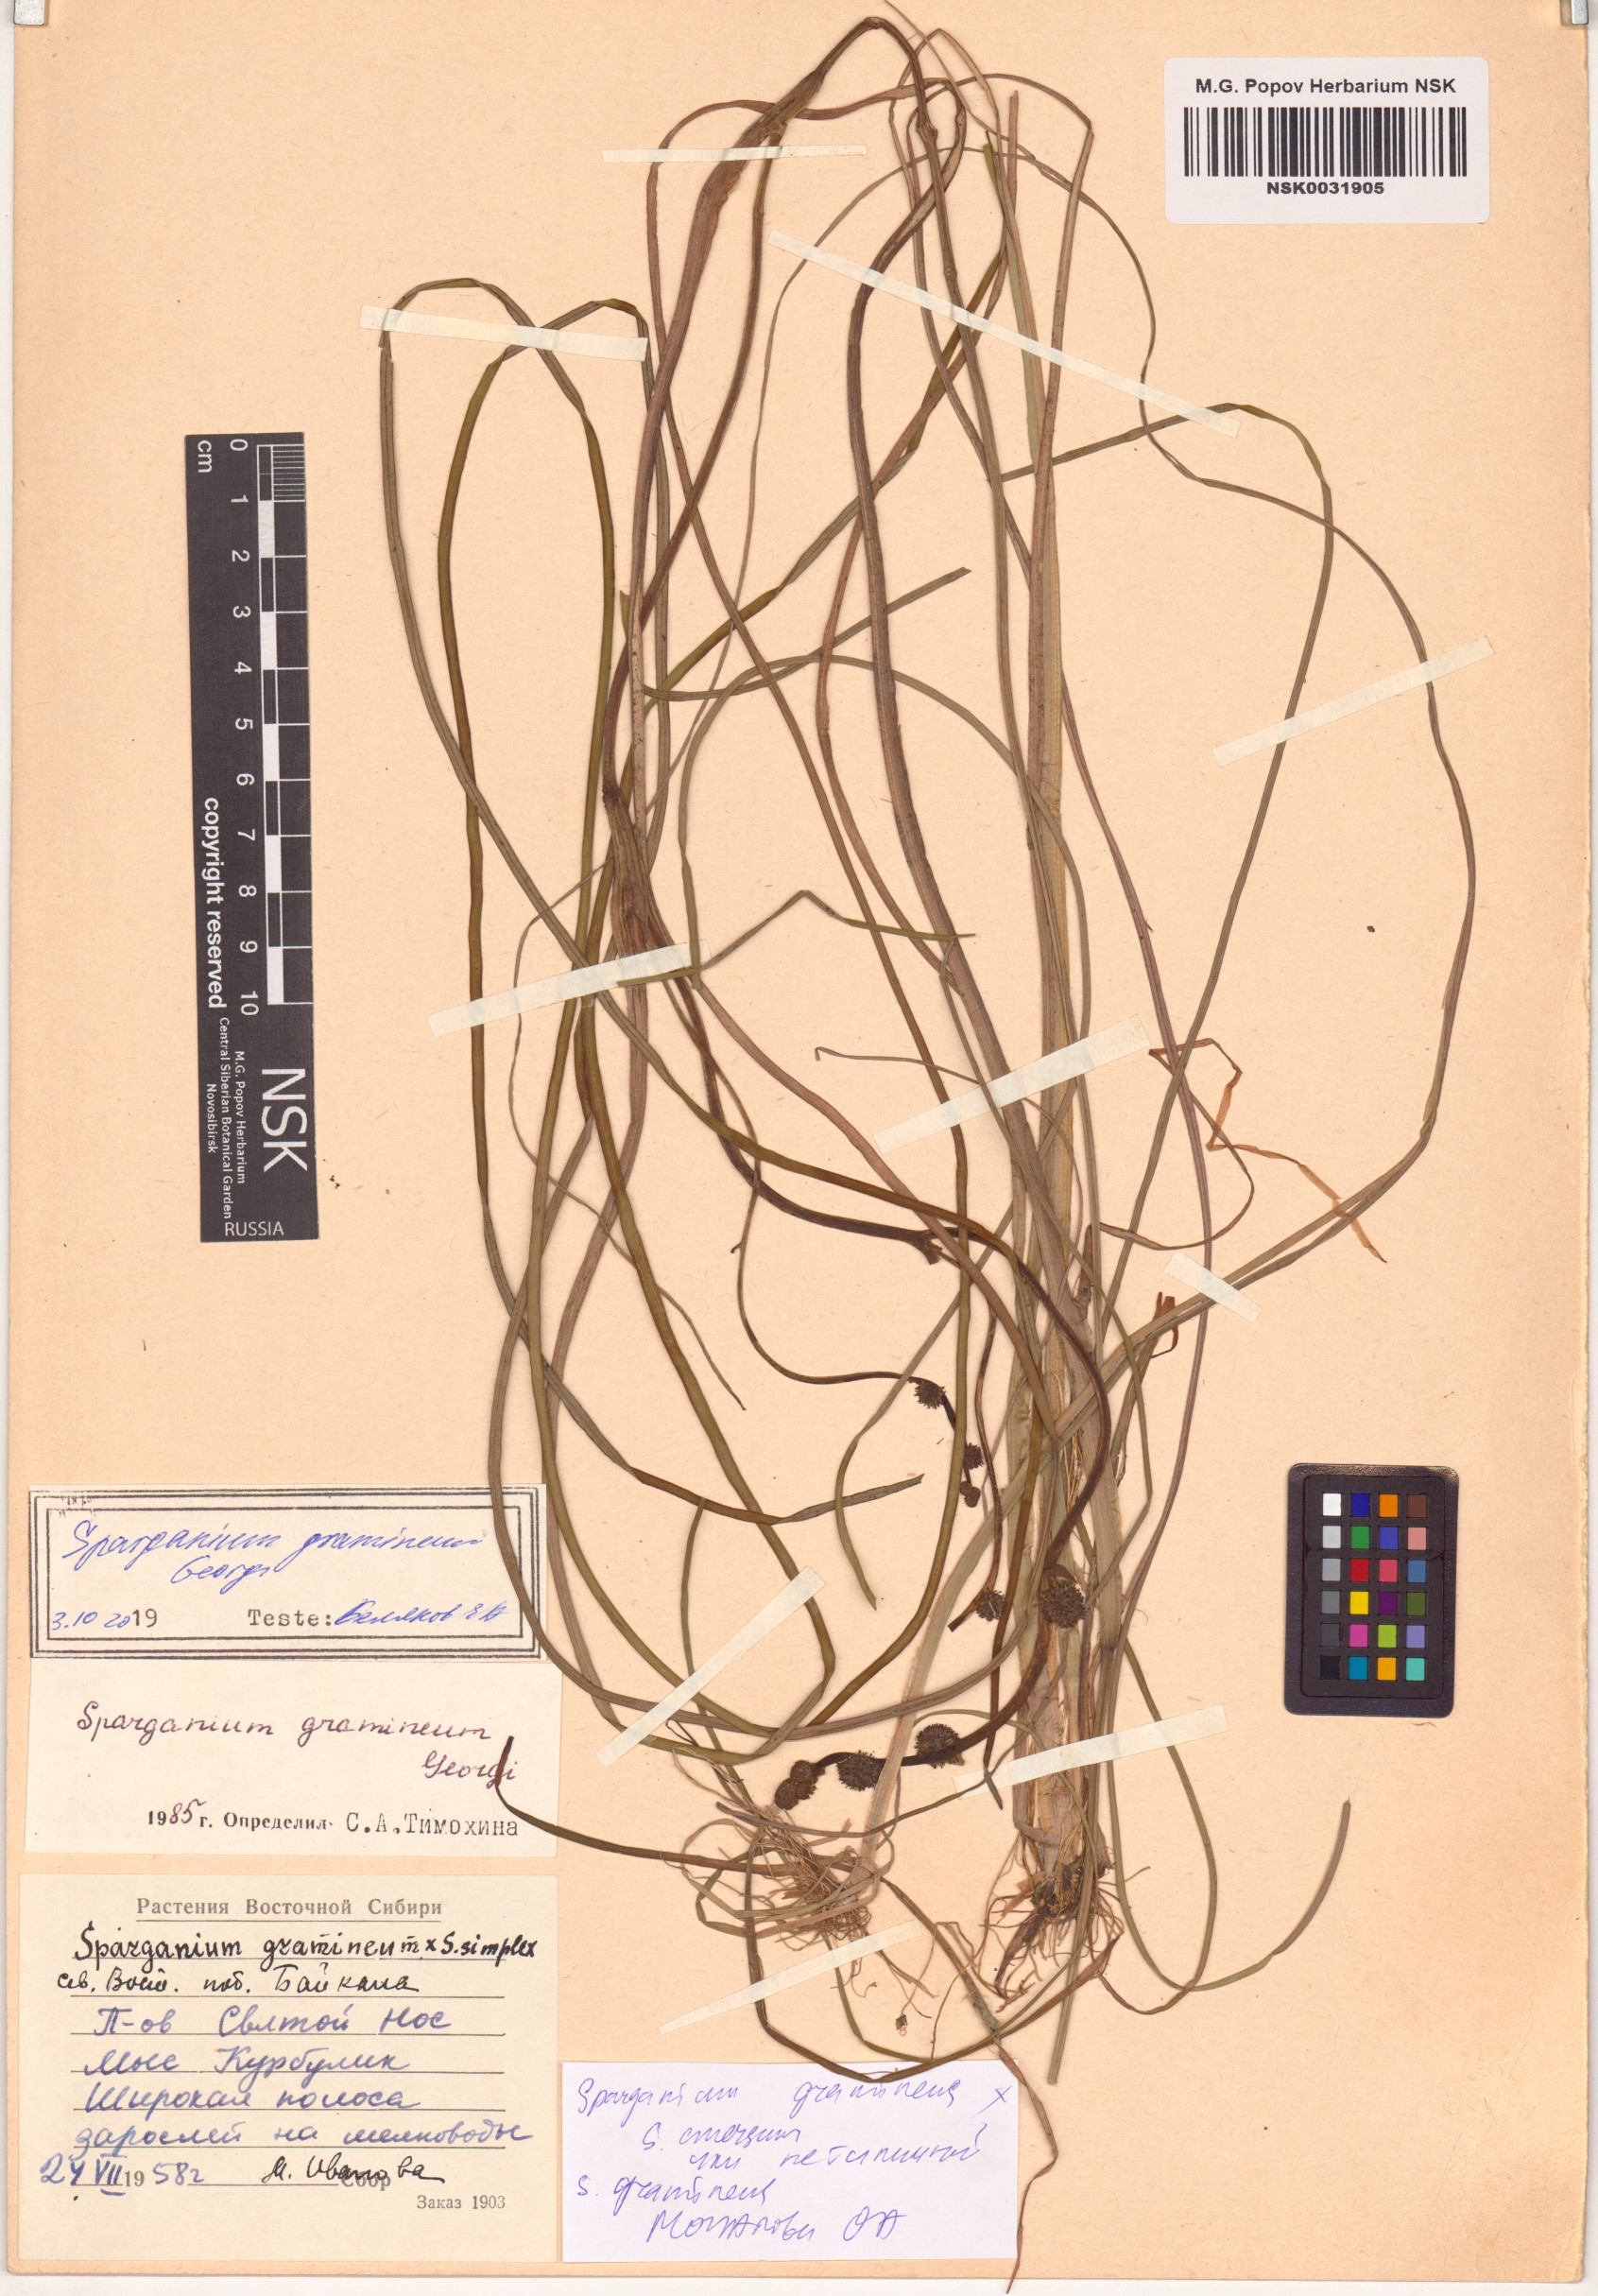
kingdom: Plantae
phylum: Tracheophyta
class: Liliopsida
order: Poales
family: Typhaceae
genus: Sparganium
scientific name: Sparganium gramineum
